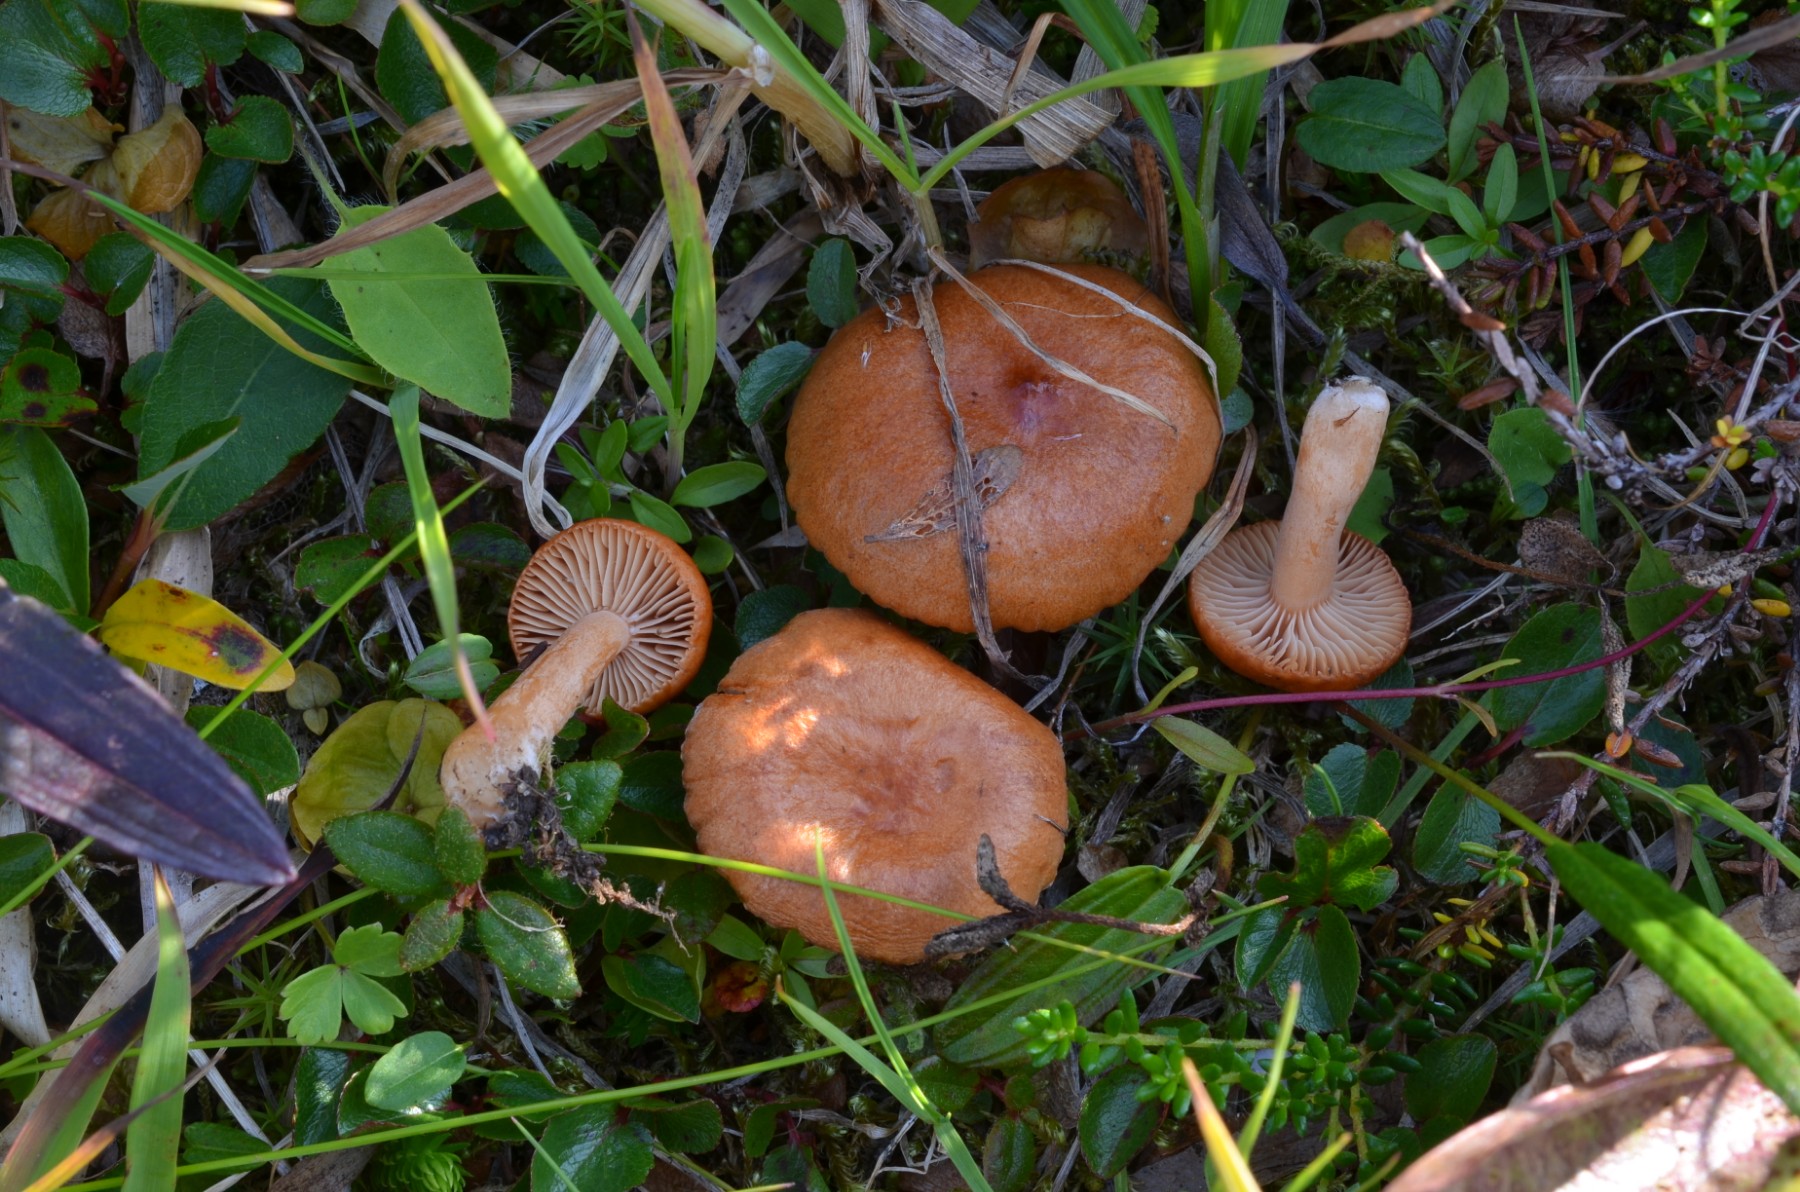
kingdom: Fungi
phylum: Basidiomycota
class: Agaricomycetes
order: Russulales
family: Russulaceae
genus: Lactarius
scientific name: Lactarius lanceolatus
